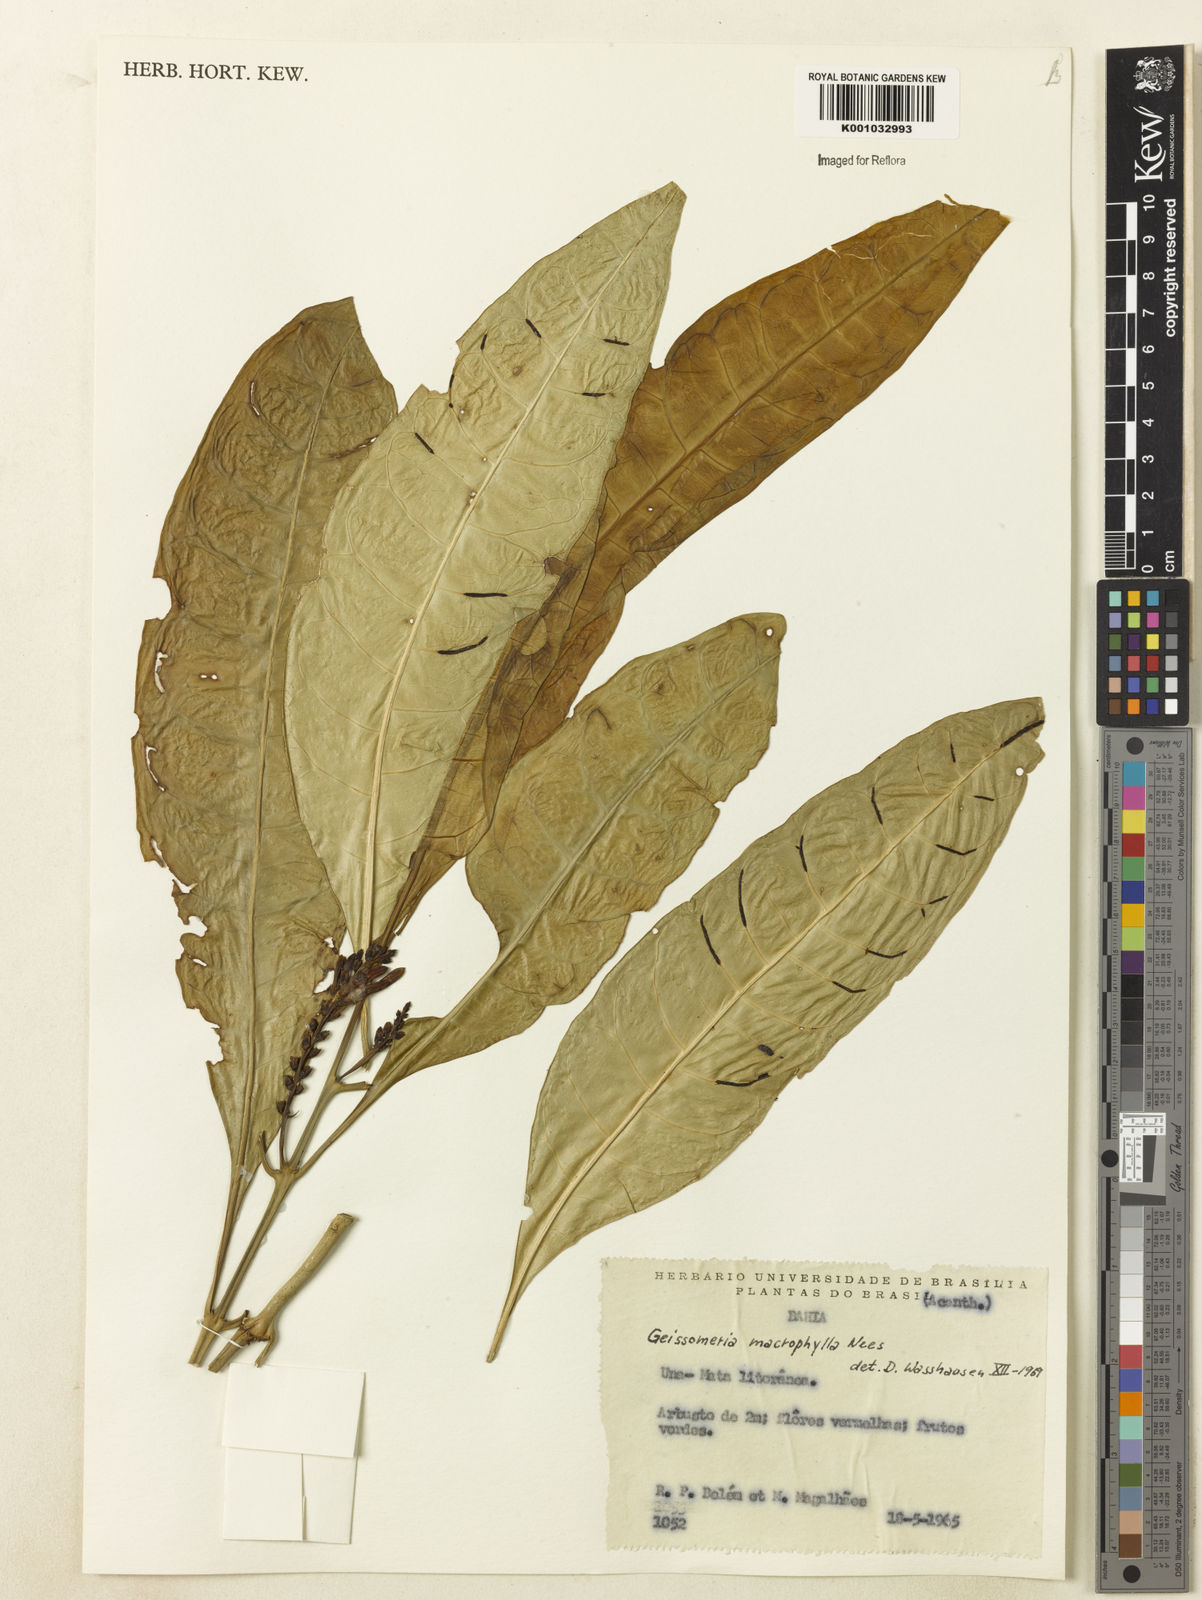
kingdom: Plantae
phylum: Tracheophyta
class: Magnoliopsida
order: Lamiales
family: Acanthaceae
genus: Aphelandra
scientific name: Aphelandra nitida
